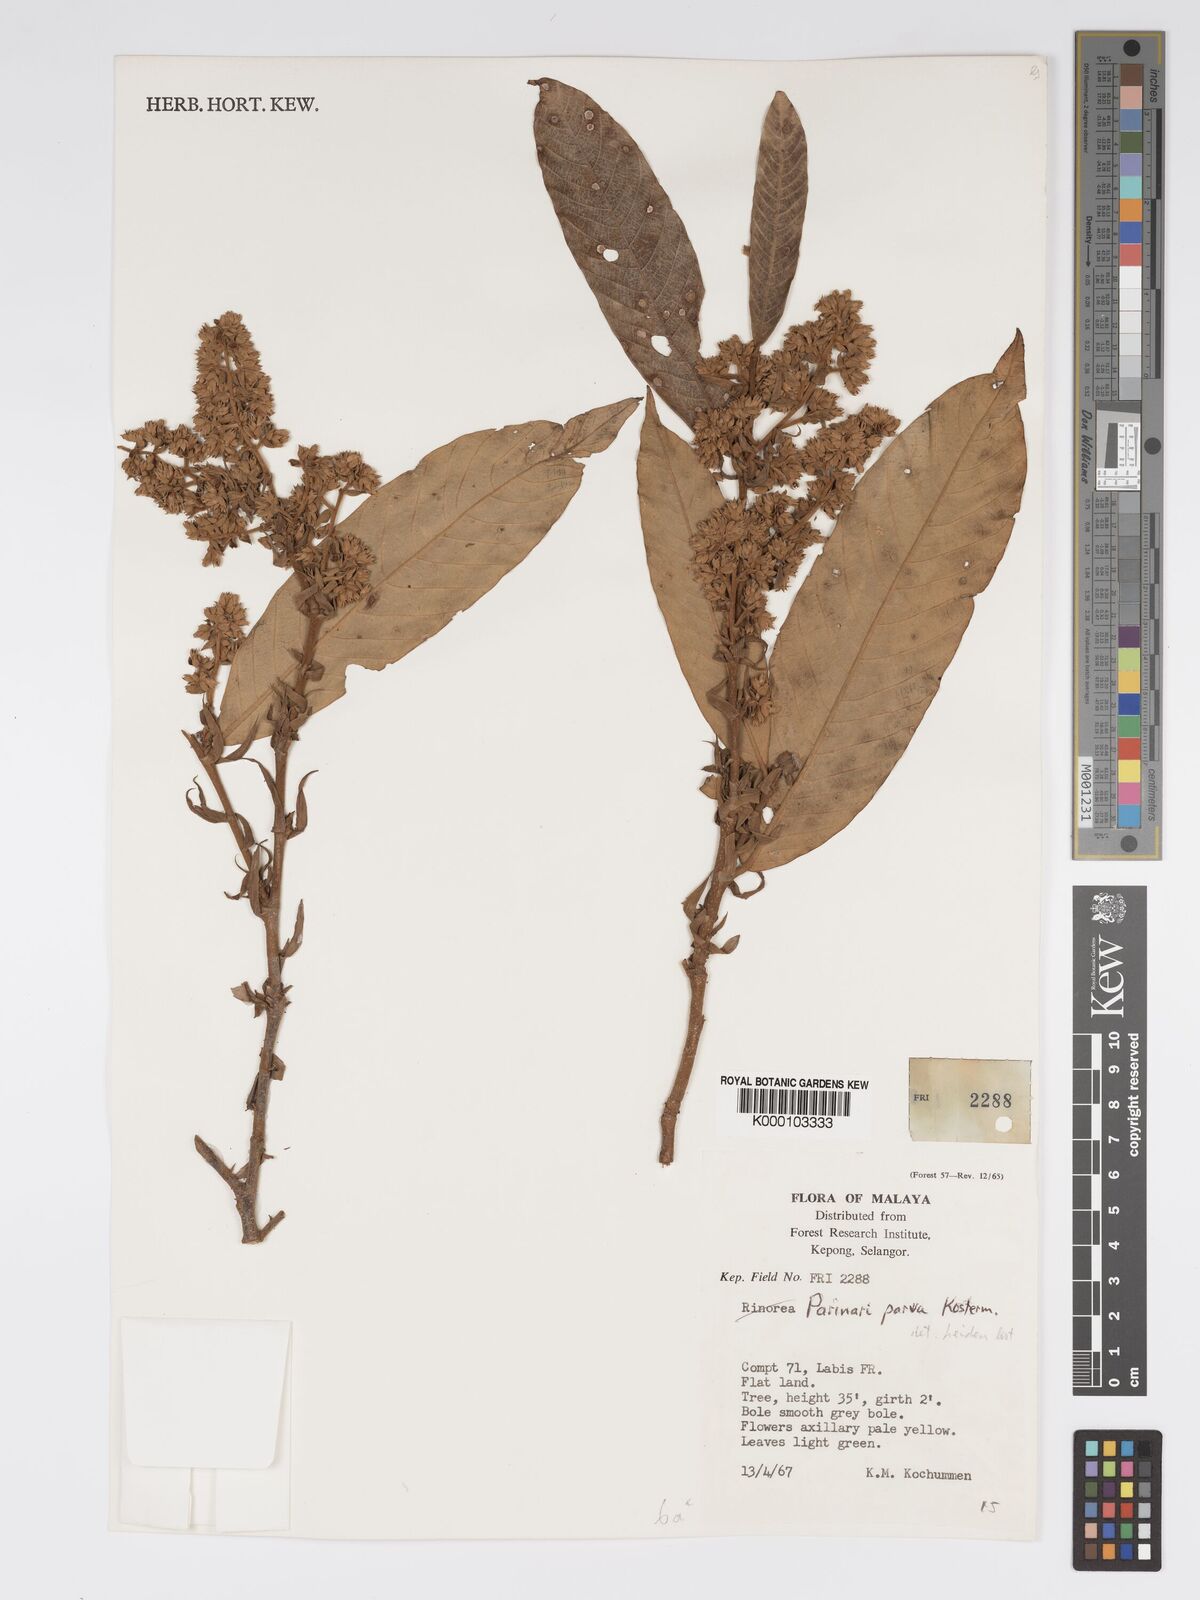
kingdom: Plantae
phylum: Tracheophyta
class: Magnoliopsida
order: Malpighiales
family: Chrysobalanaceae
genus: Parinari
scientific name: Parinari parva
